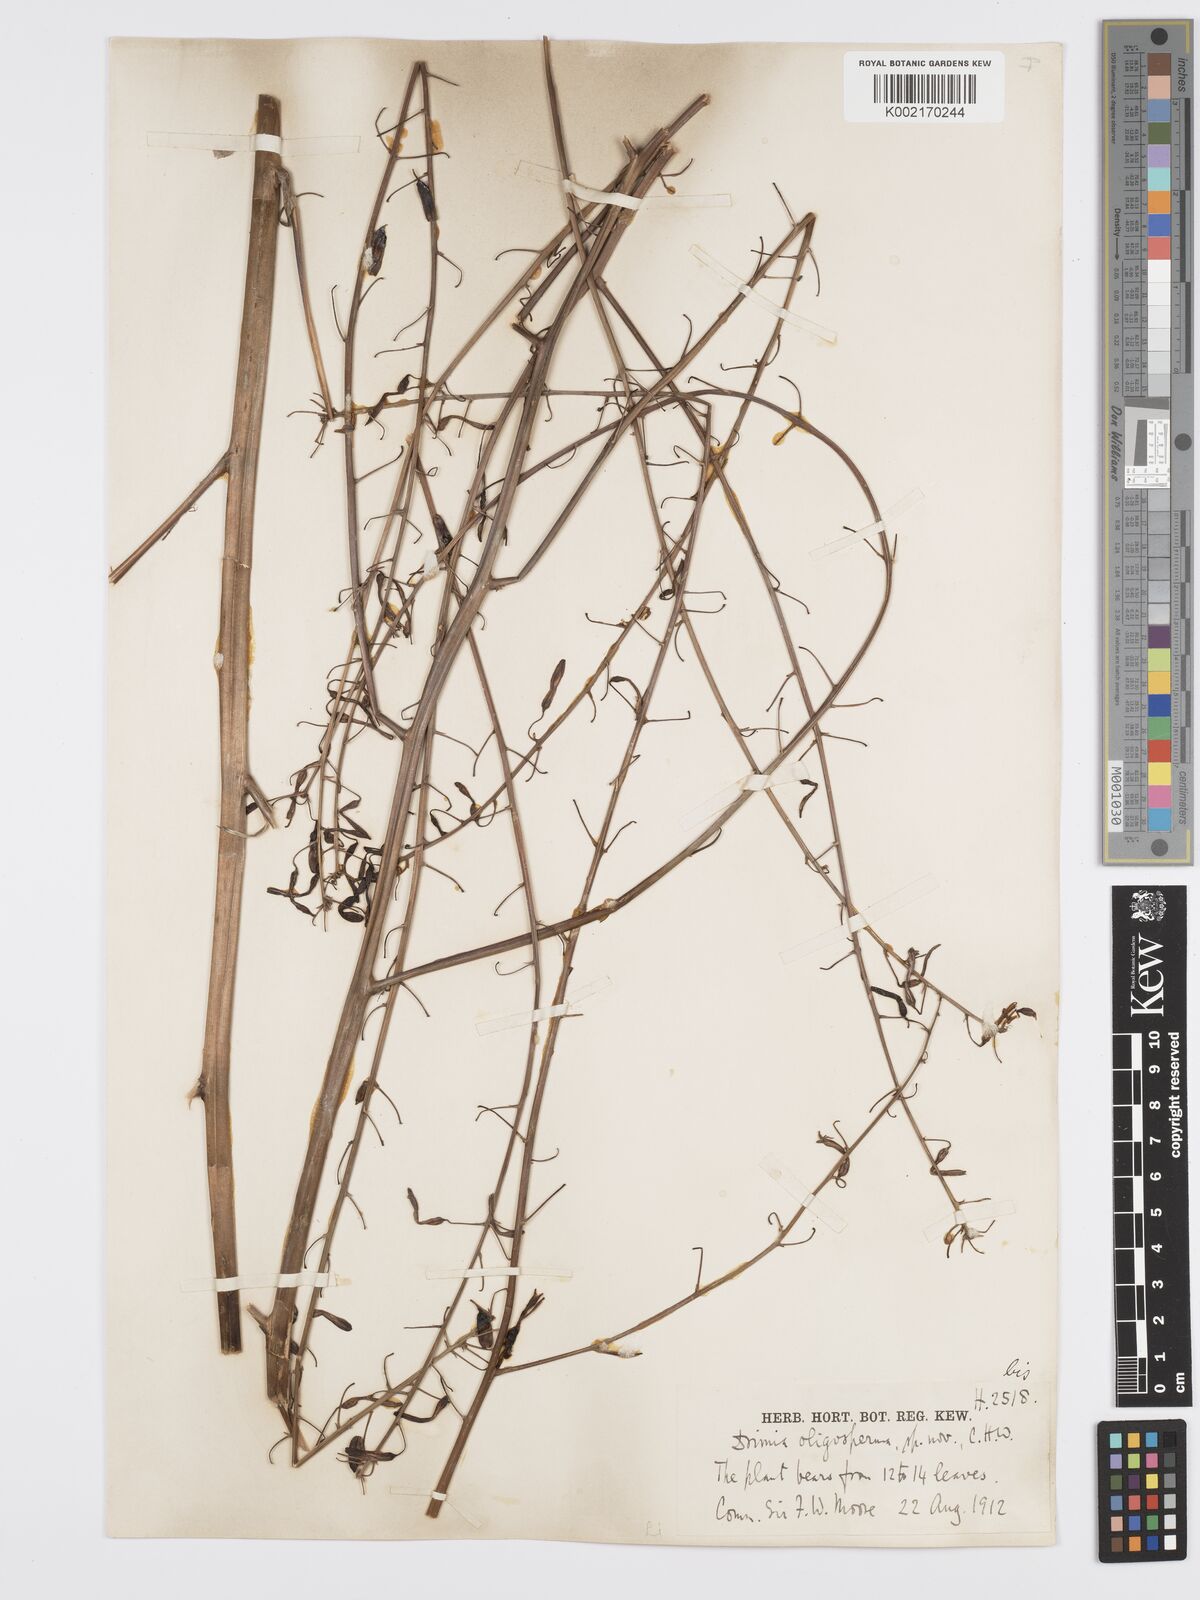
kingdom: Plantae
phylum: Tracheophyta
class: Liliopsida
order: Asparagales
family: Asparagaceae
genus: Chlorogalum
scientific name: Chlorogalum
